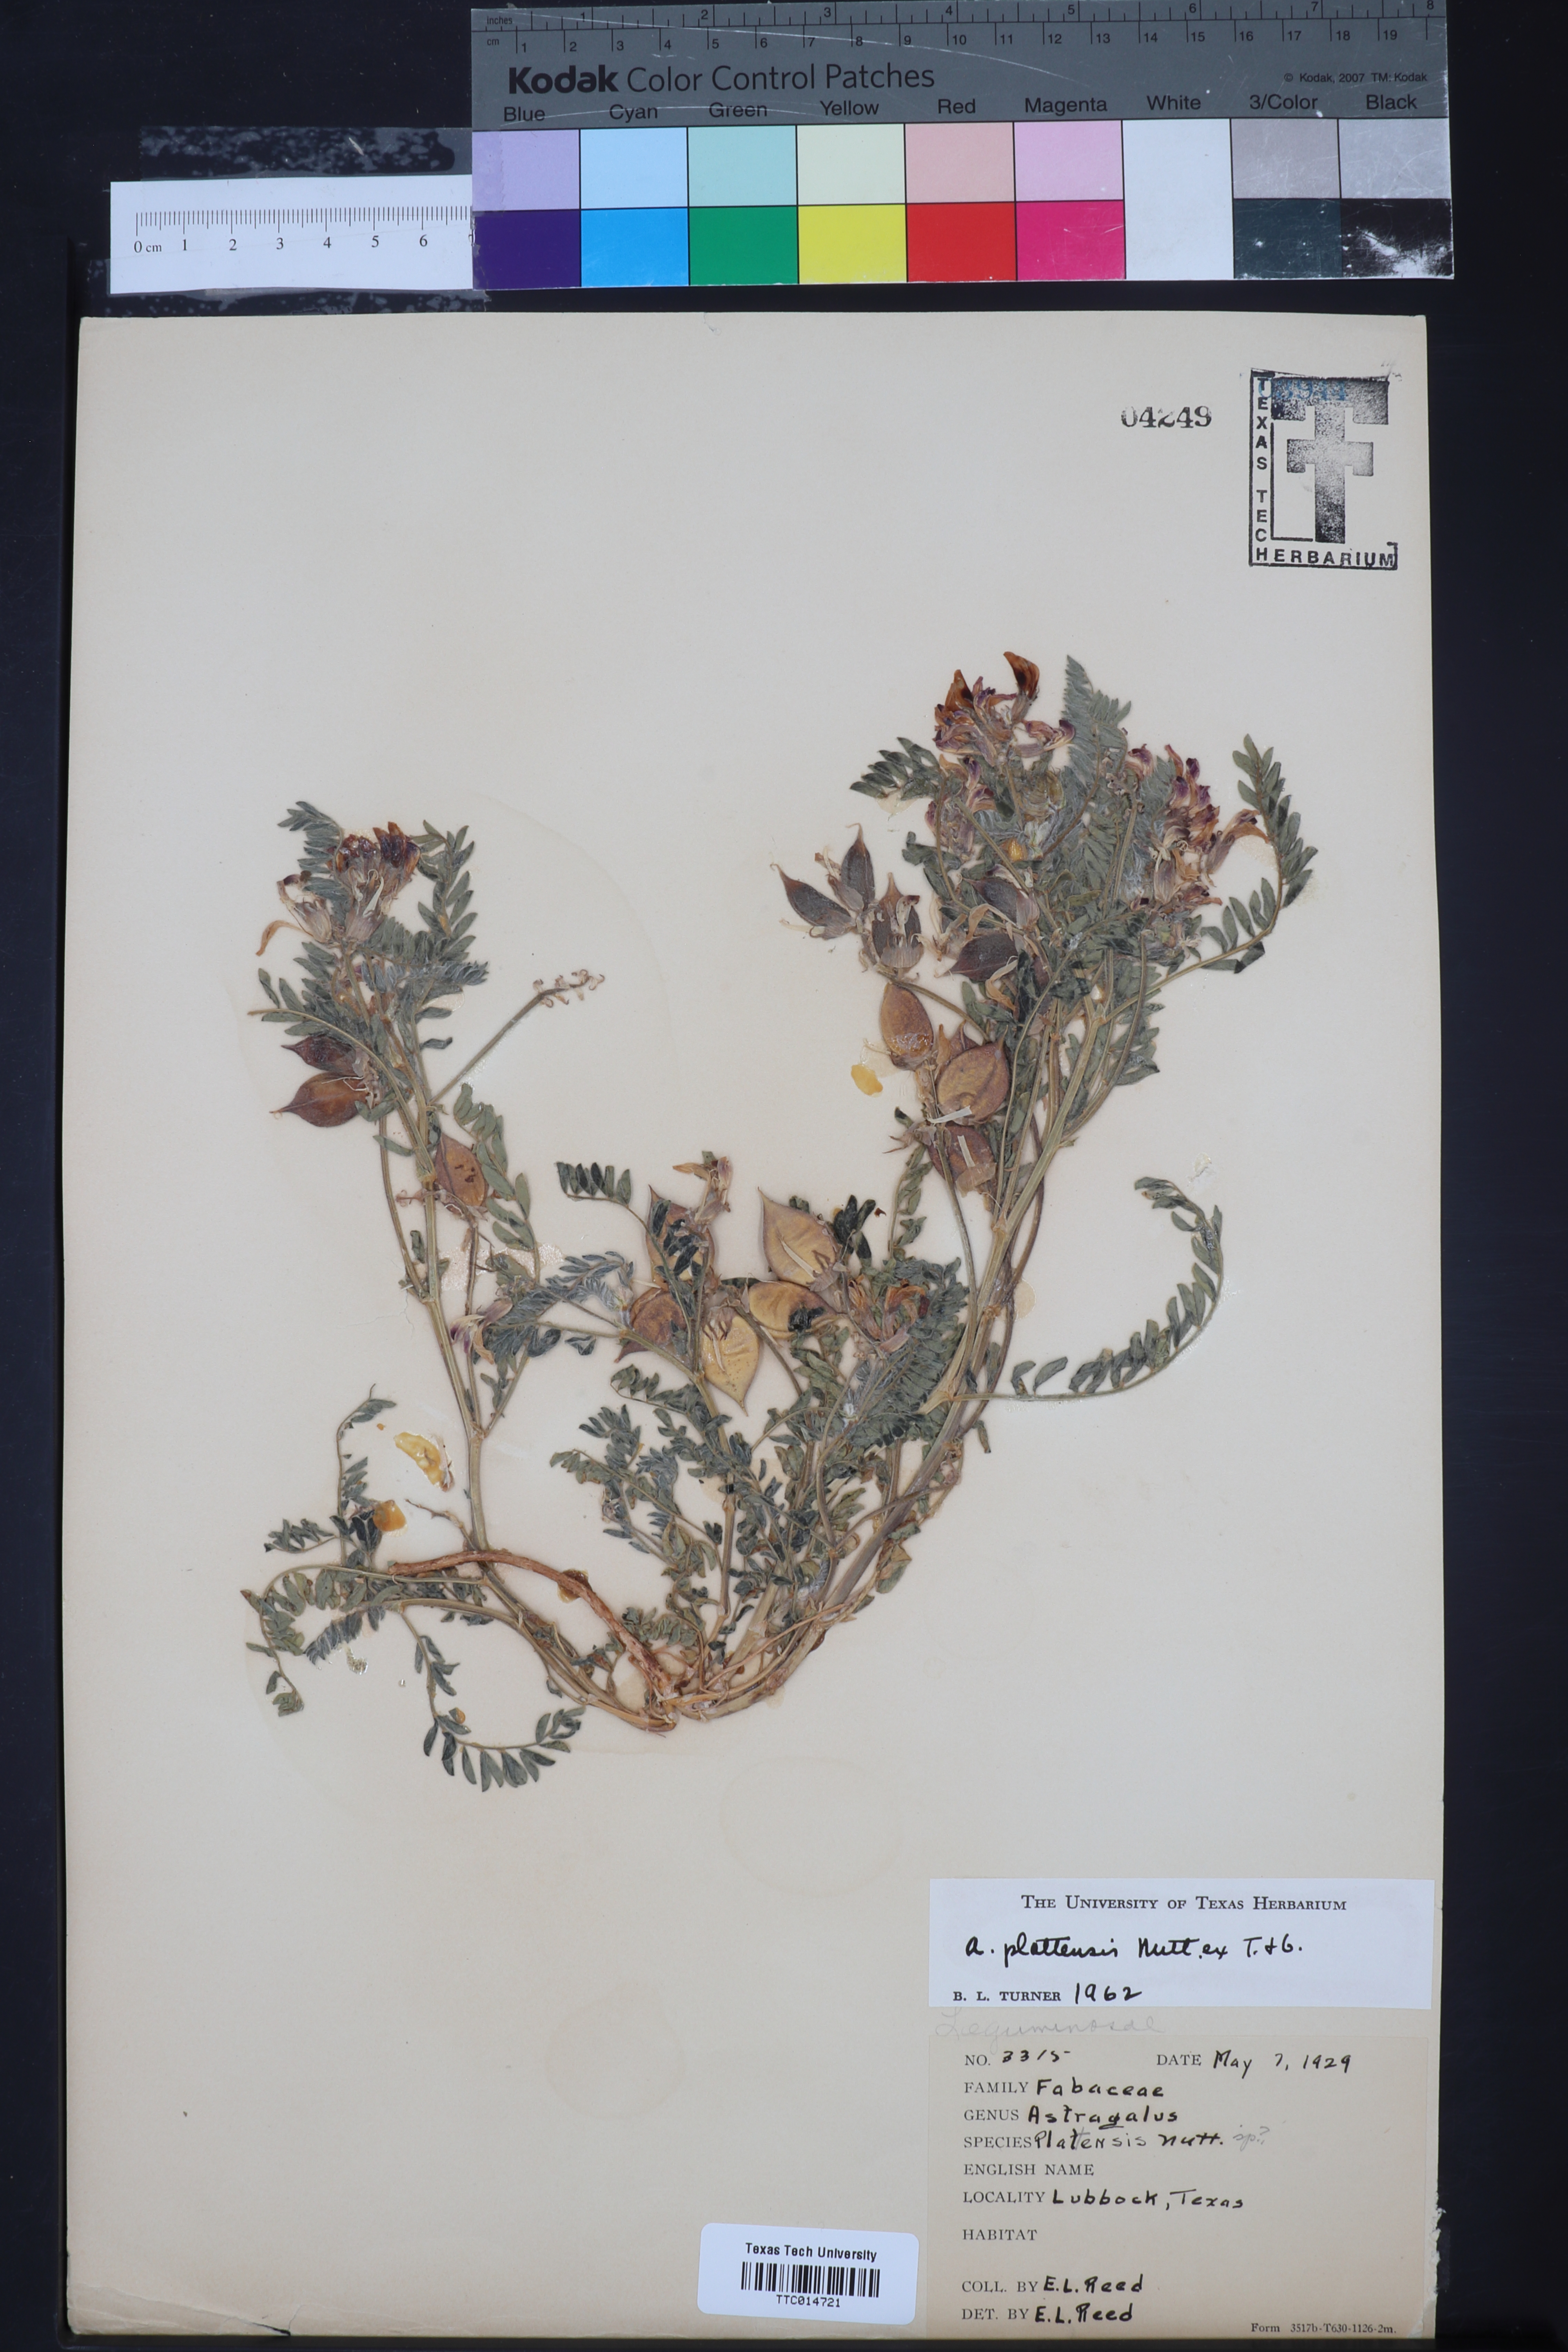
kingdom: Plantae
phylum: Tracheophyta
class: Magnoliopsida
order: Fabales
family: Fabaceae
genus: Astragalus
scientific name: Astragalus plattensis
